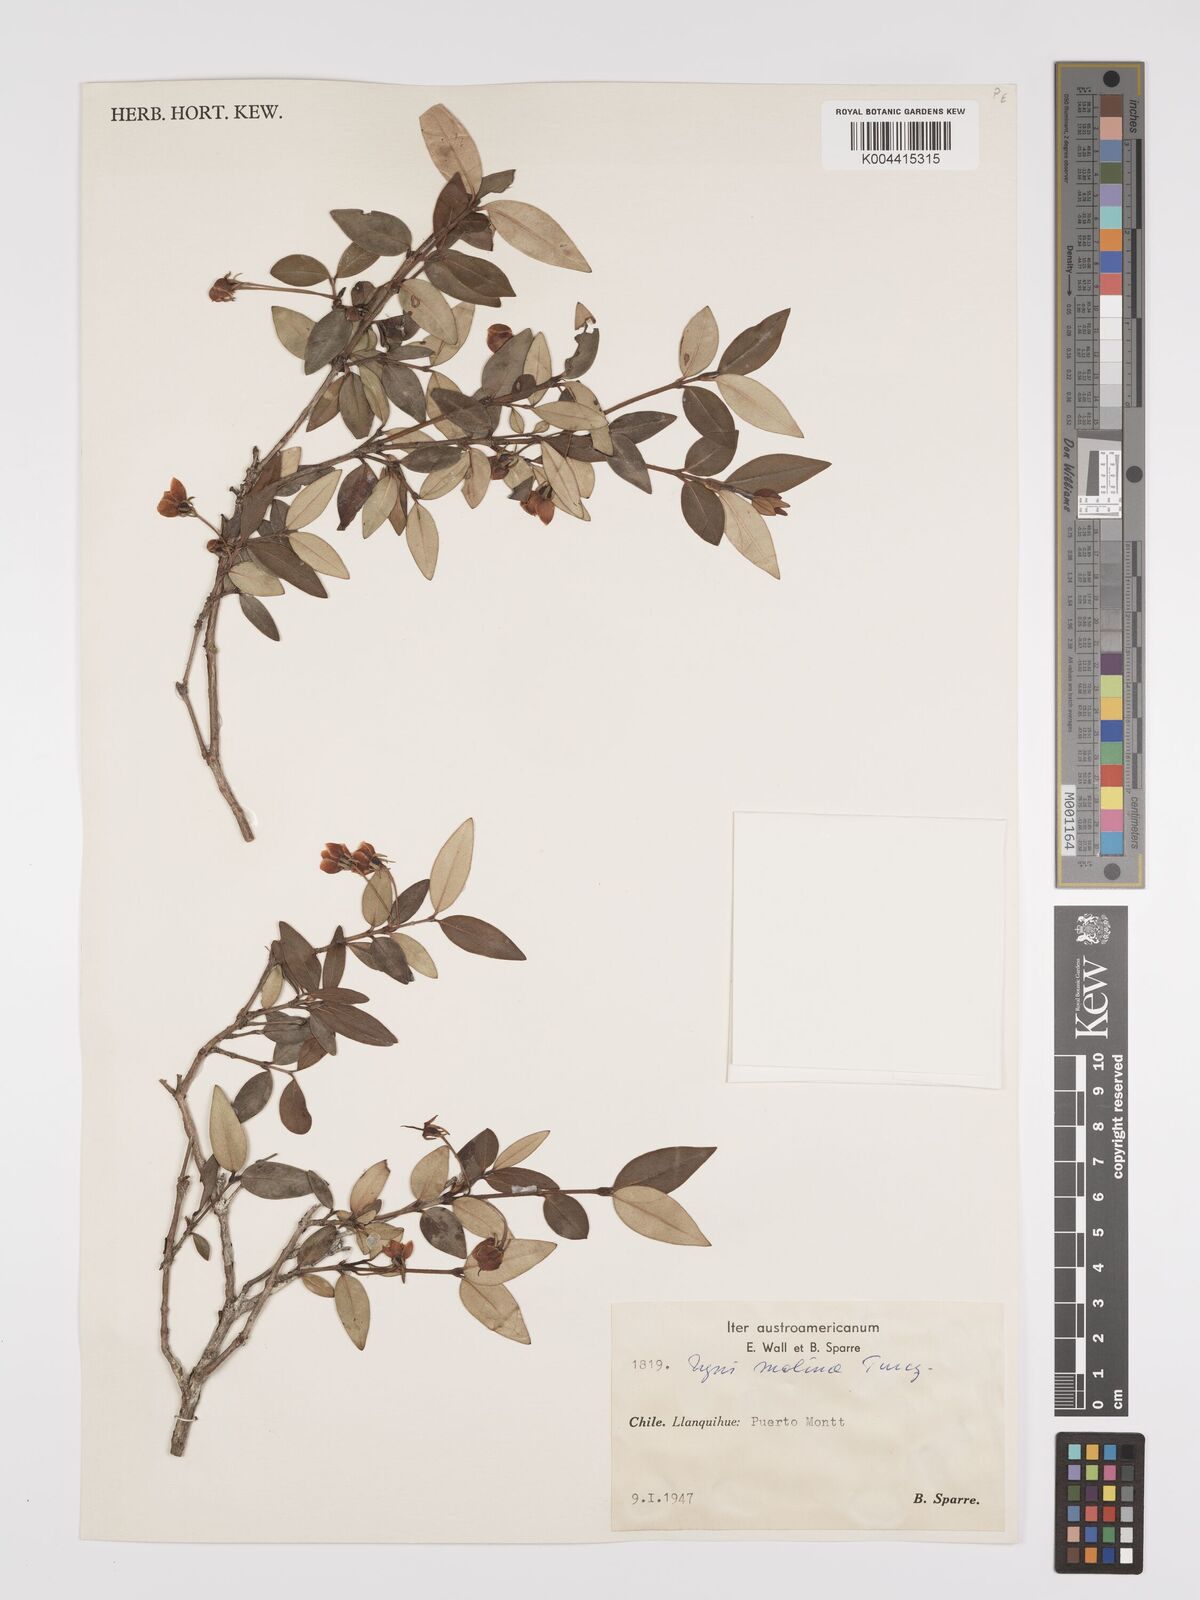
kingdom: Plantae
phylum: Tracheophyta
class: Magnoliopsida
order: Myrtales
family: Myrtaceae
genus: Ugni
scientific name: Ugni molinae
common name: Chilean-guava
